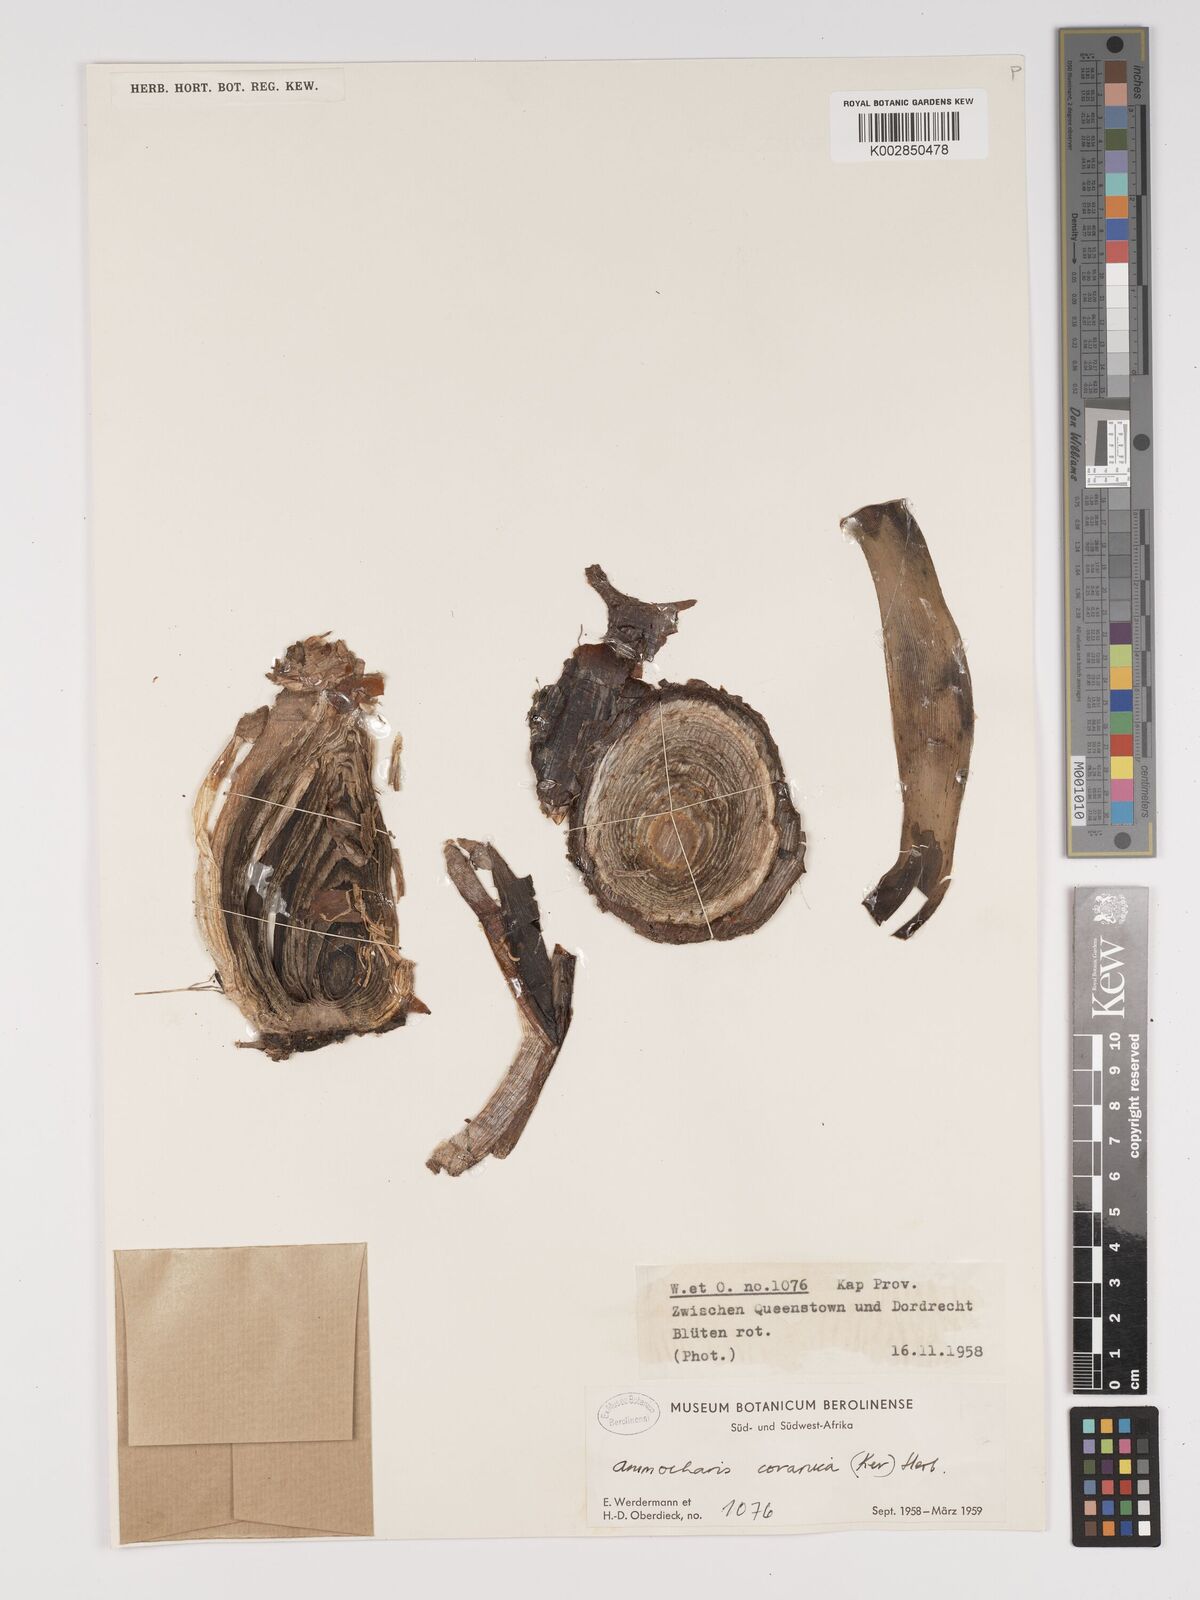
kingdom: Plantae
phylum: Tracheophyta
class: Liliopsida
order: Asparagales
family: Amaryllidaceae
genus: Ammocharis
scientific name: Ammocharis coranica
